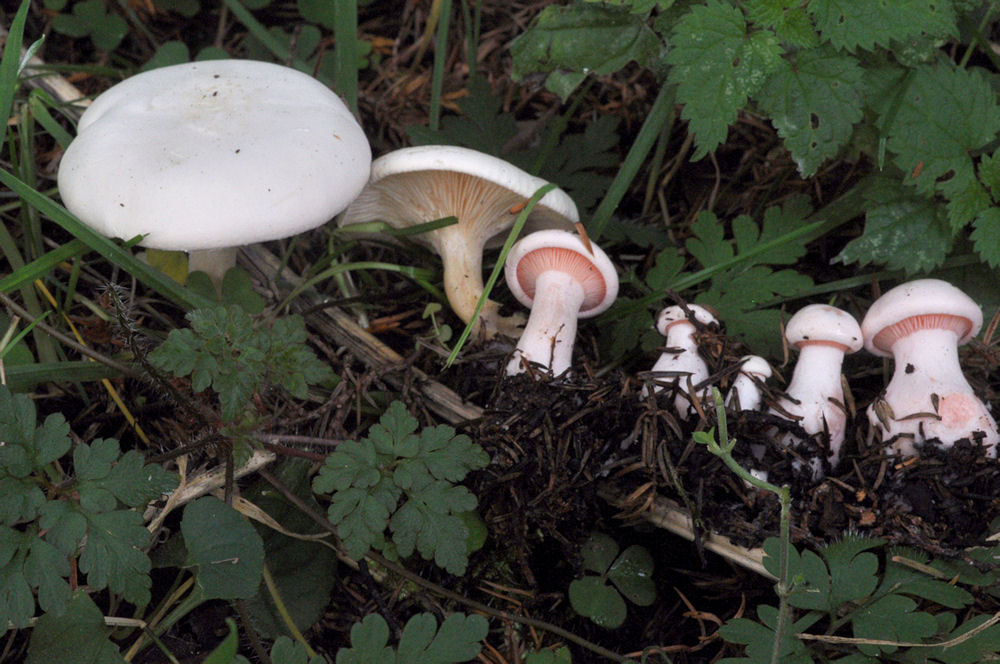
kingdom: Fungi
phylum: Basidiomycota
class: Agaricomycetes
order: Agaricales
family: Tricholomataceae
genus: Pseudoclitopilus
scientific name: Pseudoclitopilus rhodoleucus
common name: rosabladet tragtridderhat
